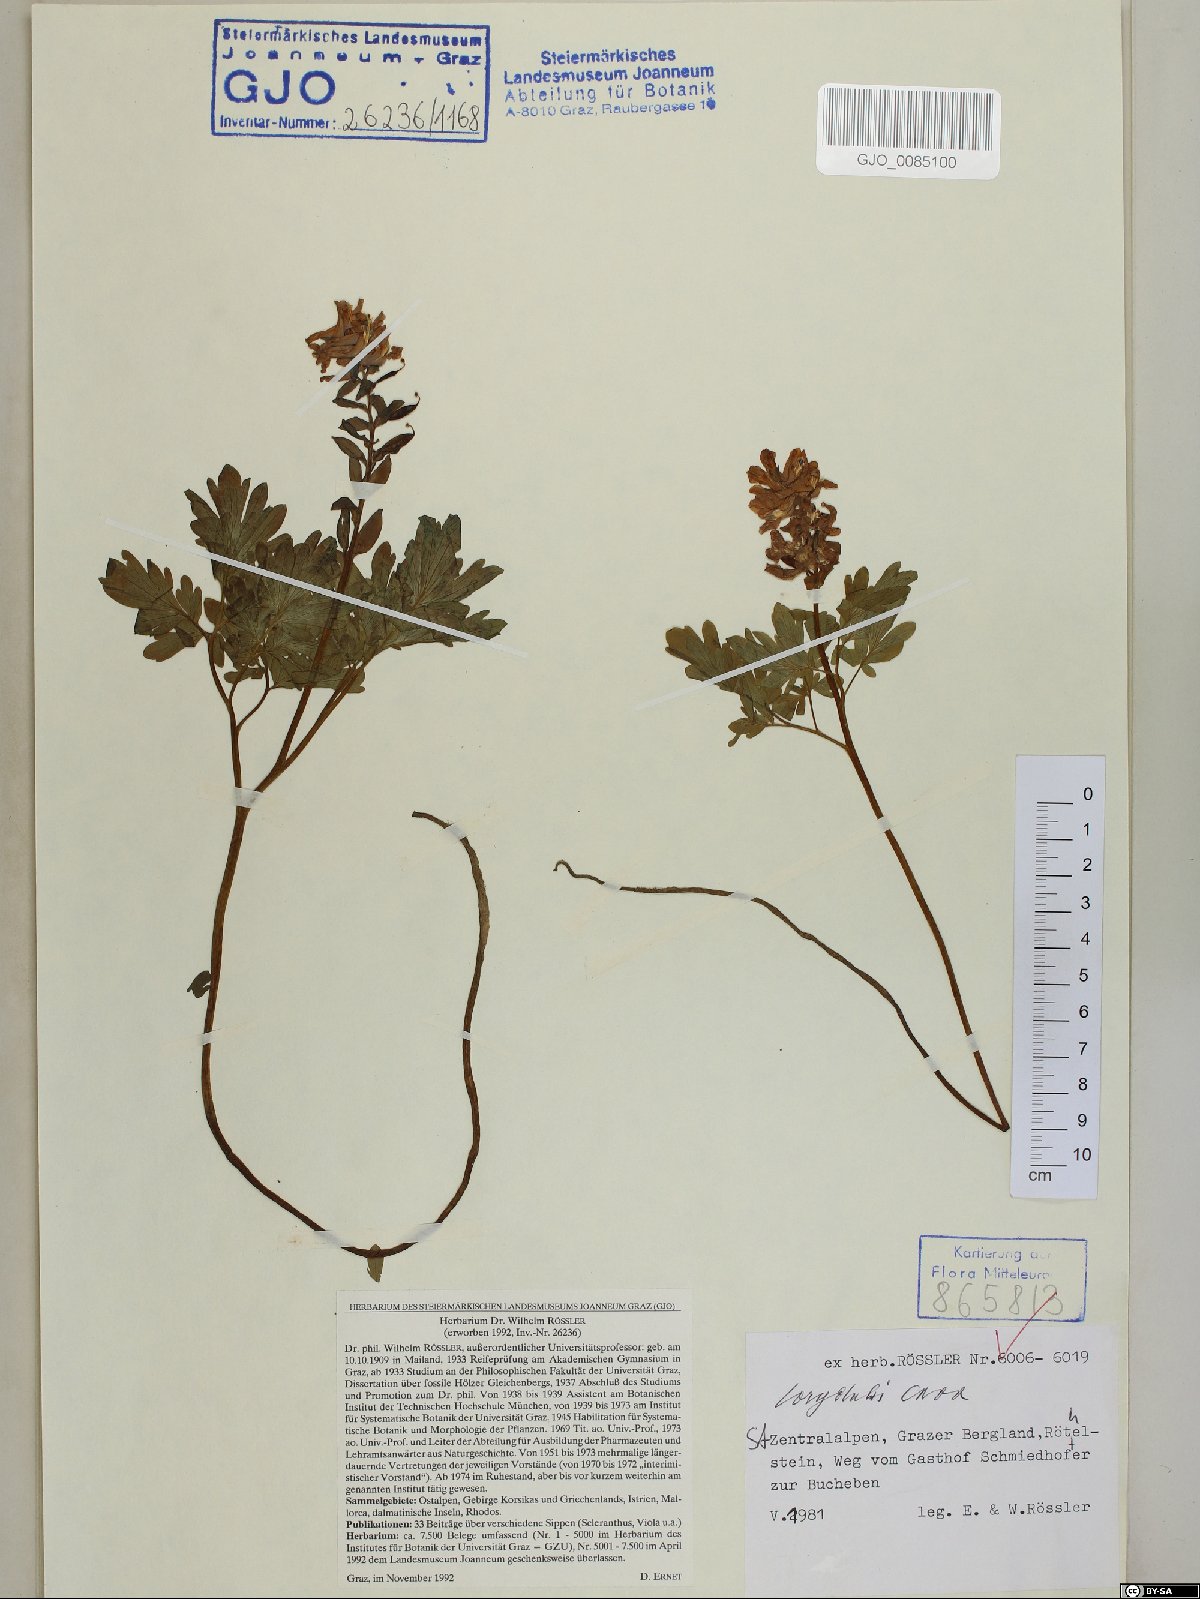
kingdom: Plantae
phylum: Tracheophyta
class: Magnoliopsida
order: Ranunculales
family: Papaveraceae
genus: Corydalis
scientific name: Corydalis cava
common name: Hollowroot
